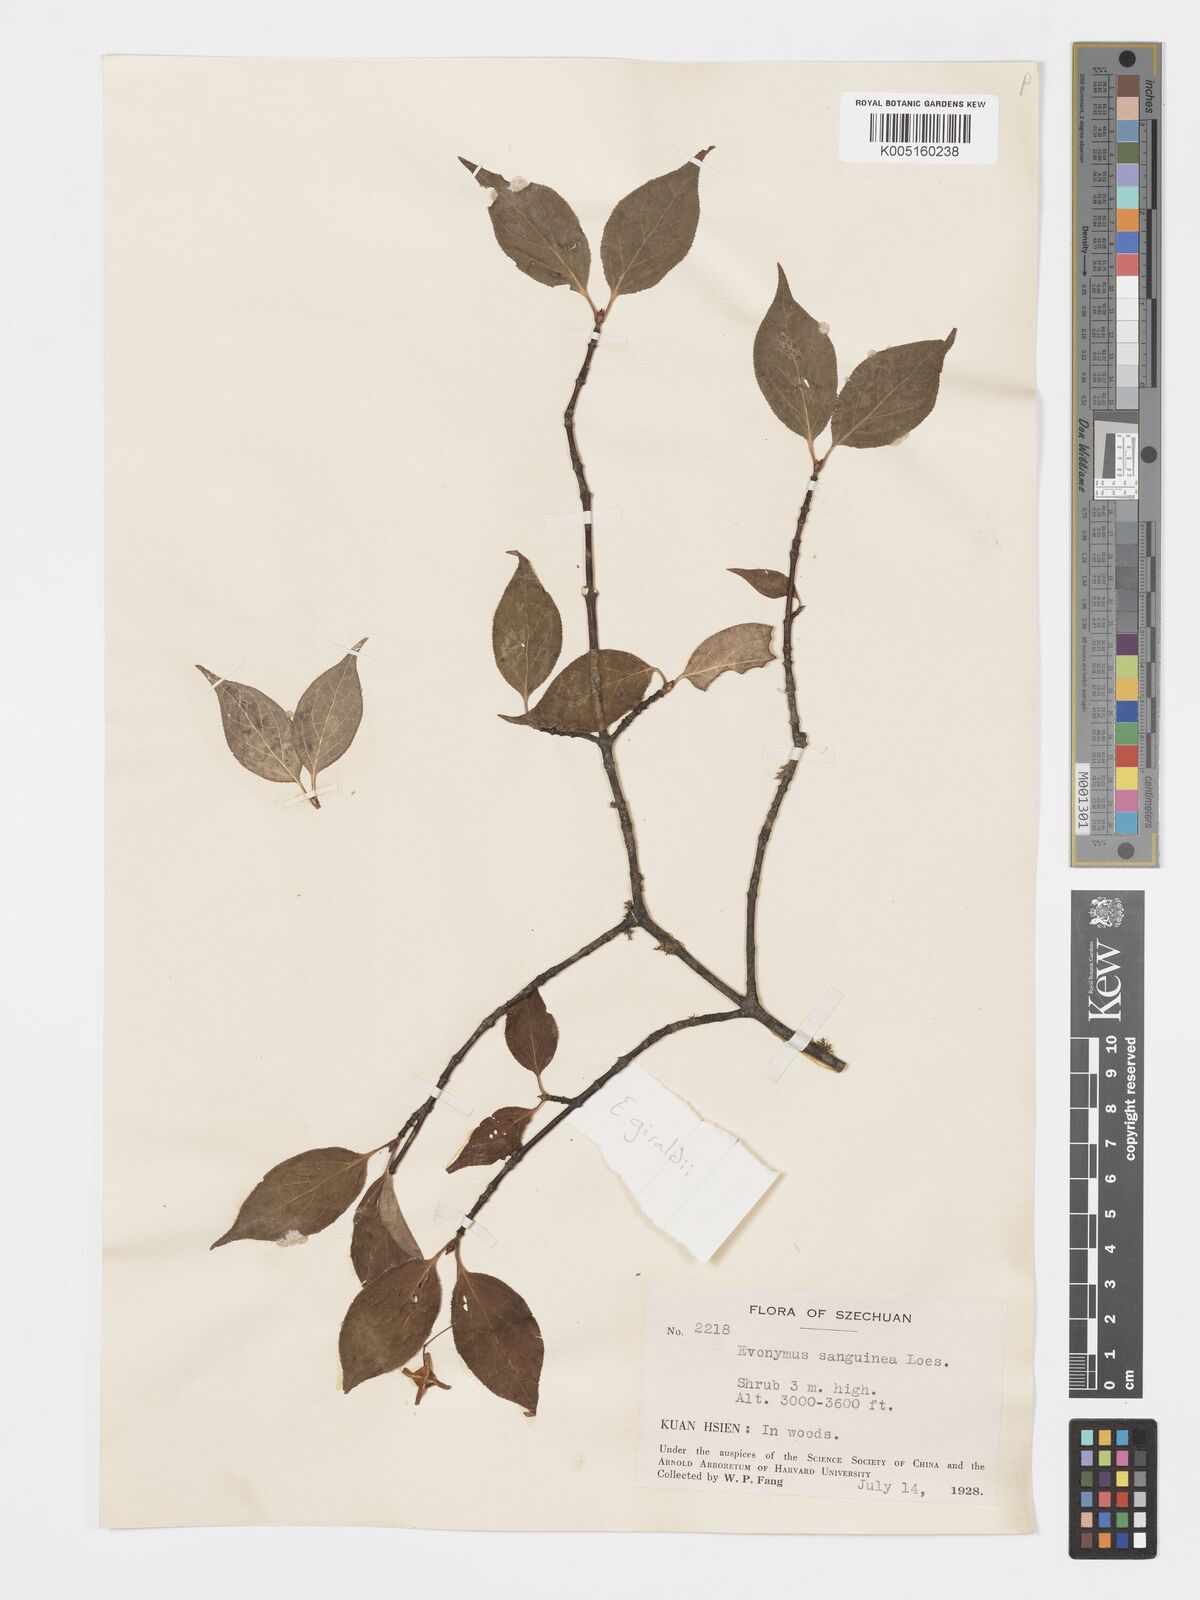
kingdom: Plantae
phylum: Tracheophyta
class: Magnoliopsida
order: Celastrales
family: Celastraceae
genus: Euonymus
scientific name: Euonymus giraldii
